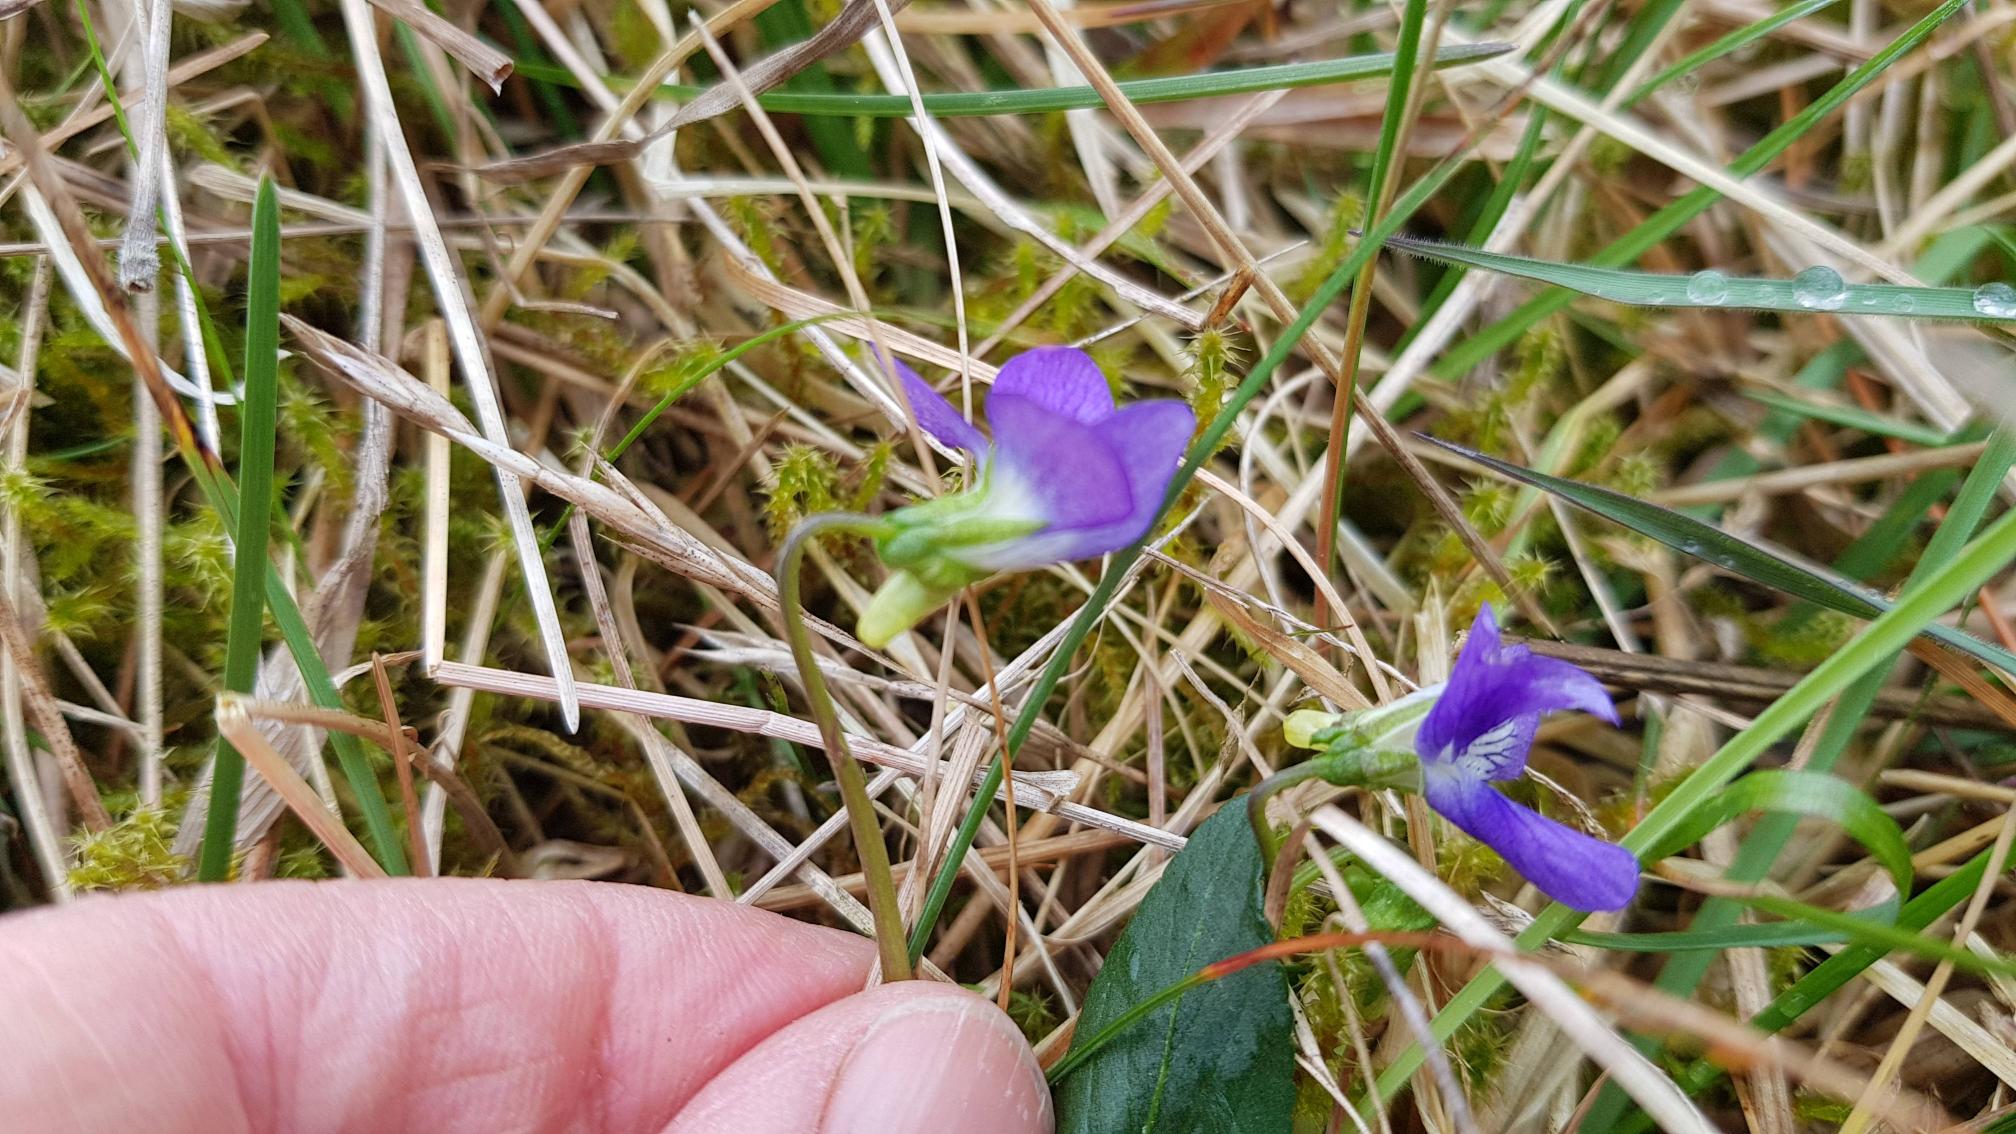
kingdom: Plantae
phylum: Tracheophyta
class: Magnoliopsida
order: Malpighiales
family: Violaceae
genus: Viola
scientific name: Viola canina
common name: Hunde-viol
